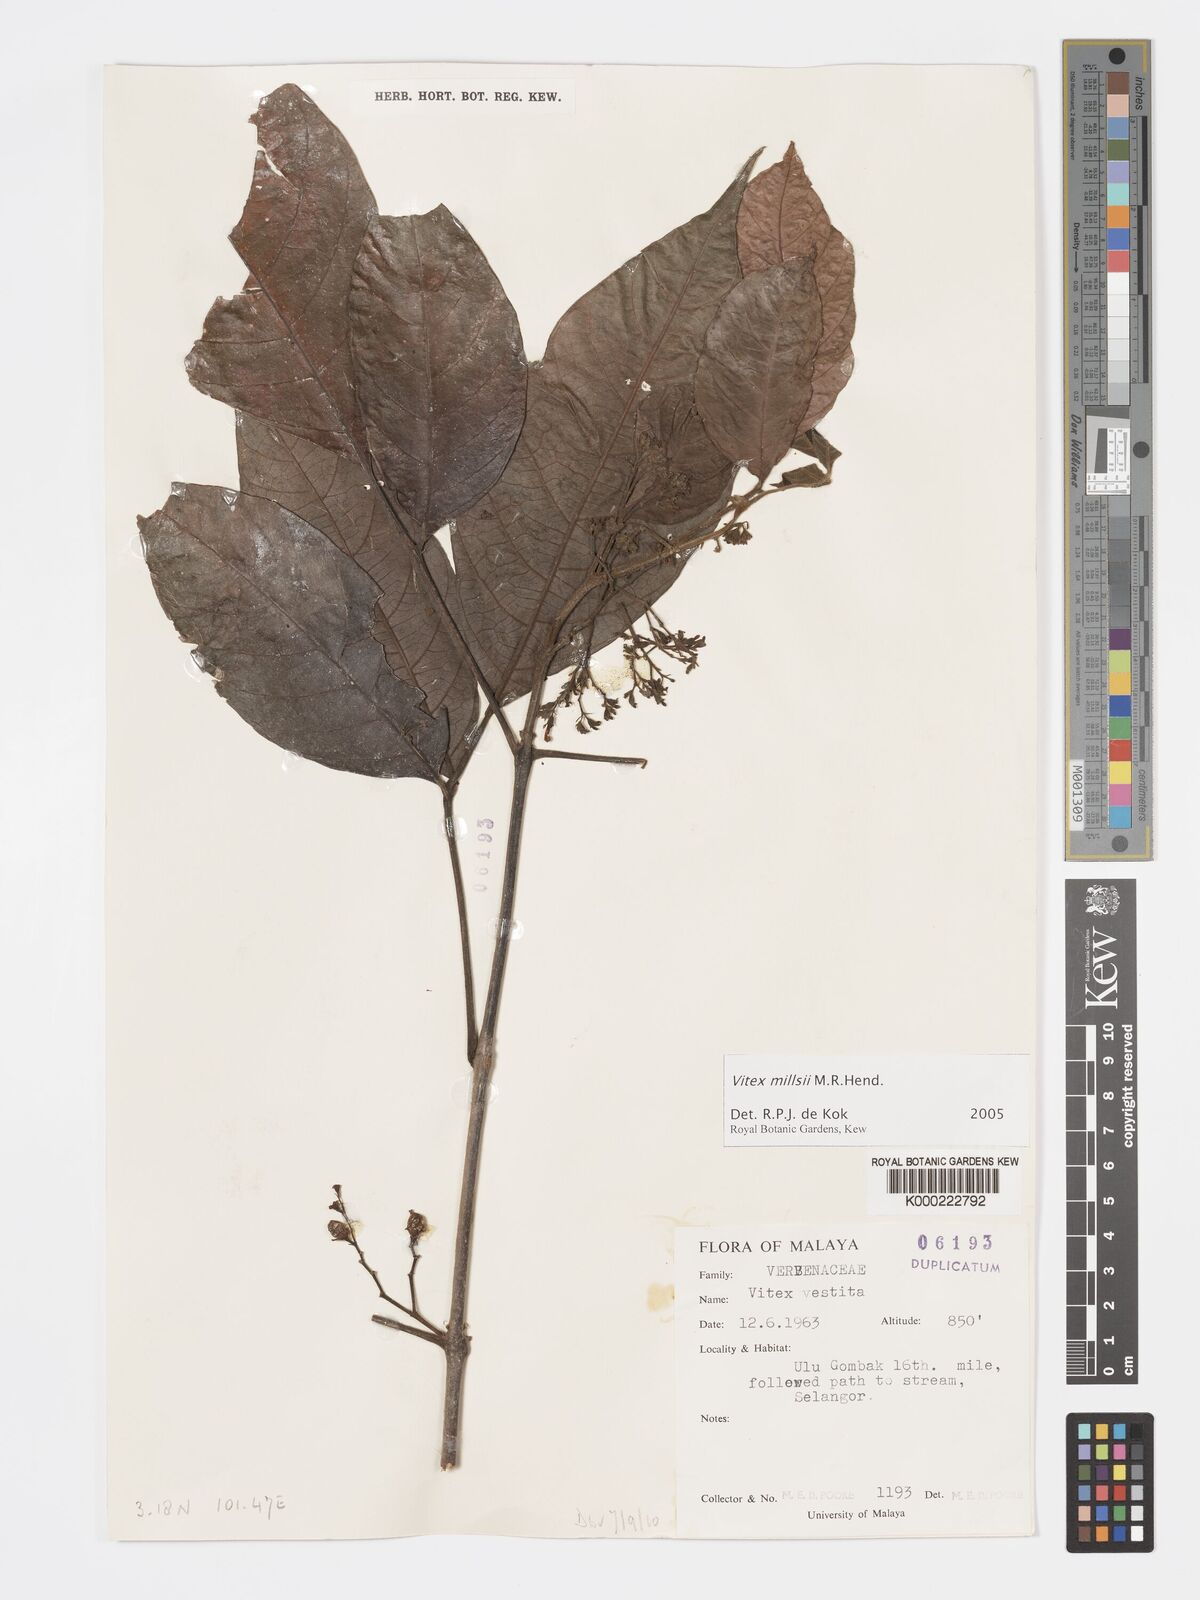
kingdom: Plantae
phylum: Tracheophyta
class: Magnoliopsida
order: Lamiales
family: Lamiaceae
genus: Vitex
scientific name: Vitex millsii
